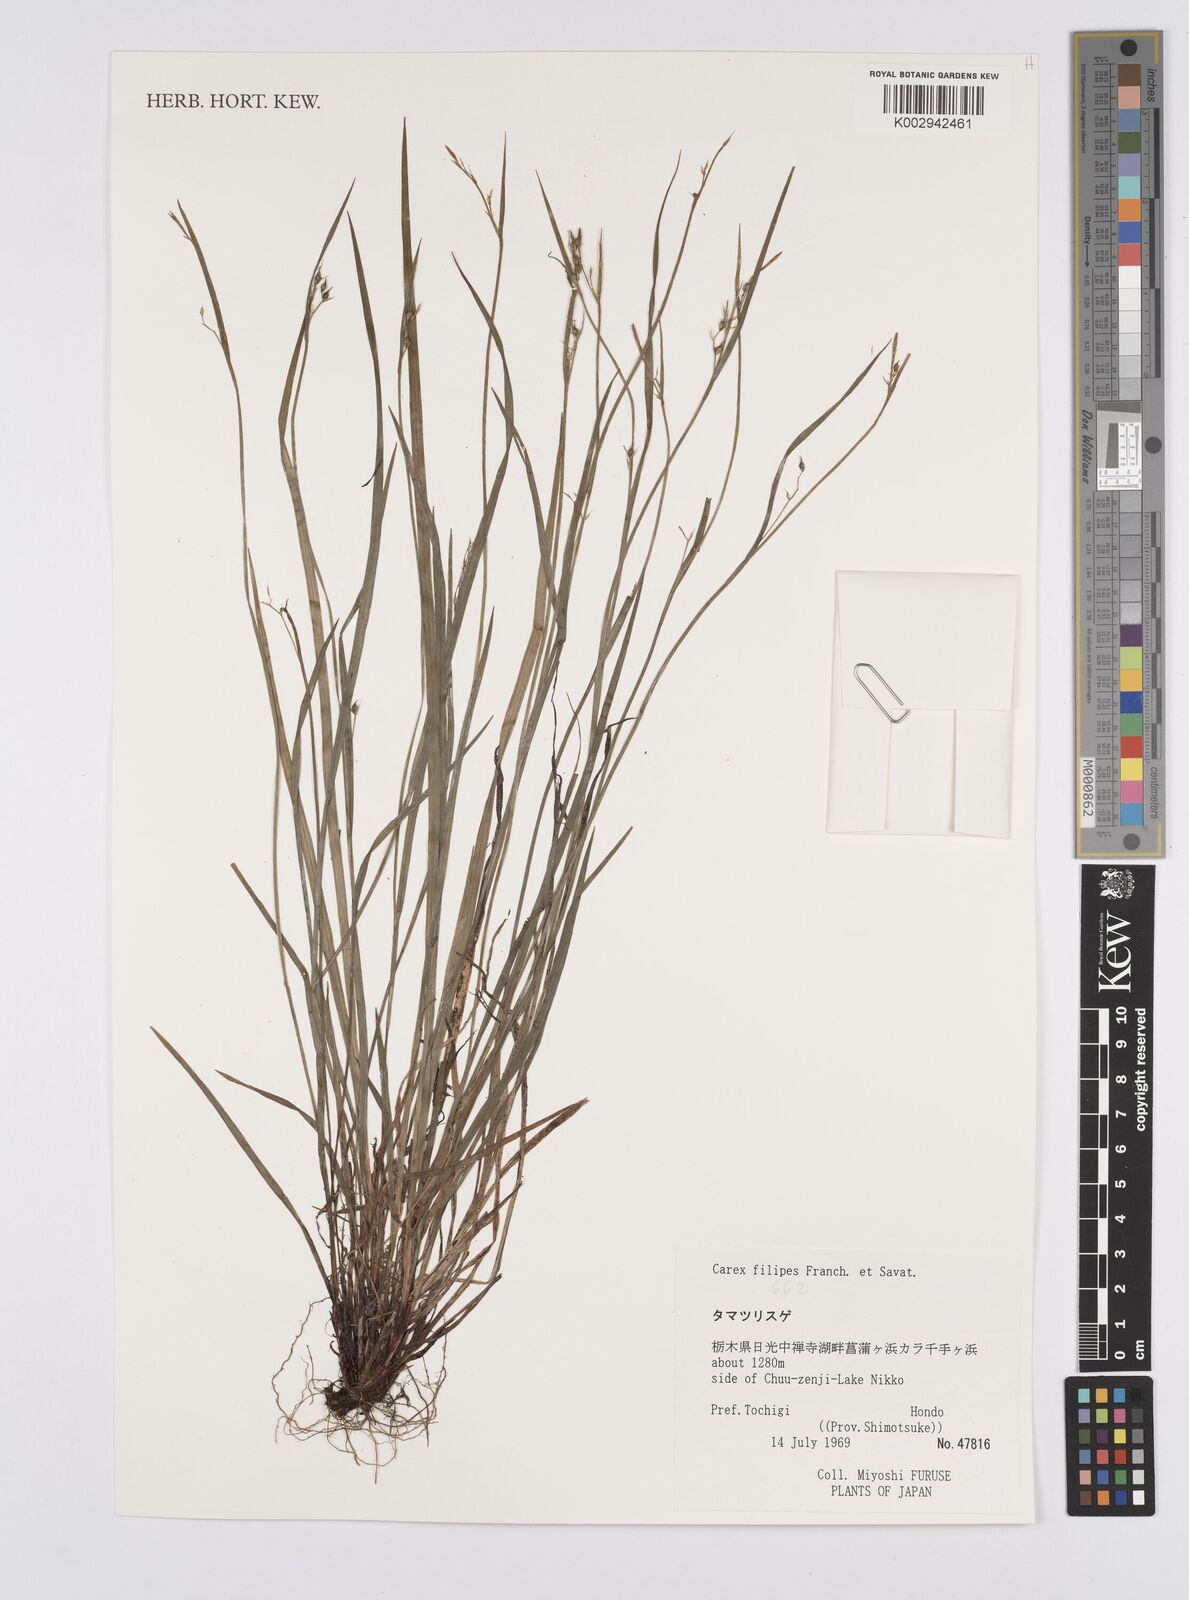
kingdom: Plantae
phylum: Tracheophyta
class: Liliopsida
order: Poales
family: Cyperaceae
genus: Carex
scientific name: Carex filipes
